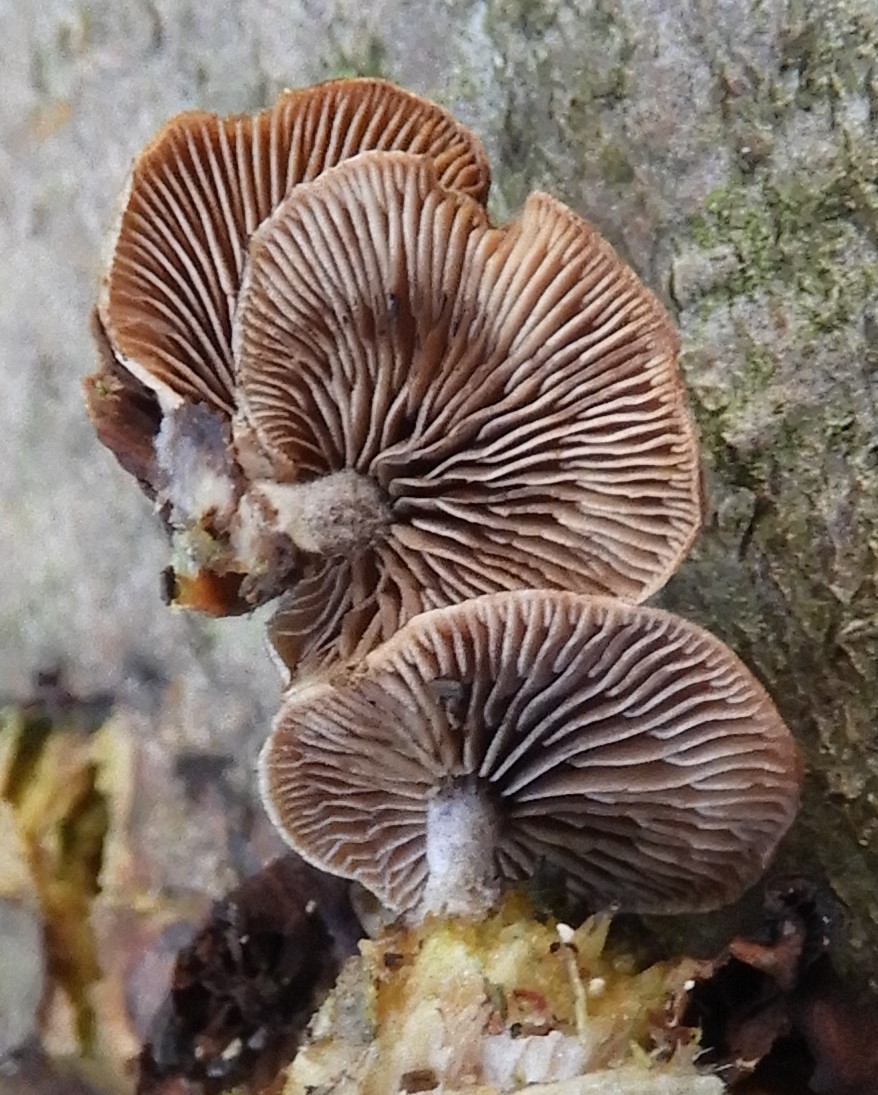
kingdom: Fungi
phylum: Basidiomycota
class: Agaricomycetes
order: Agaricales
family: Strophariaceae
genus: Deconica
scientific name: Deconica horizontalis
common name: ved-stråhat
